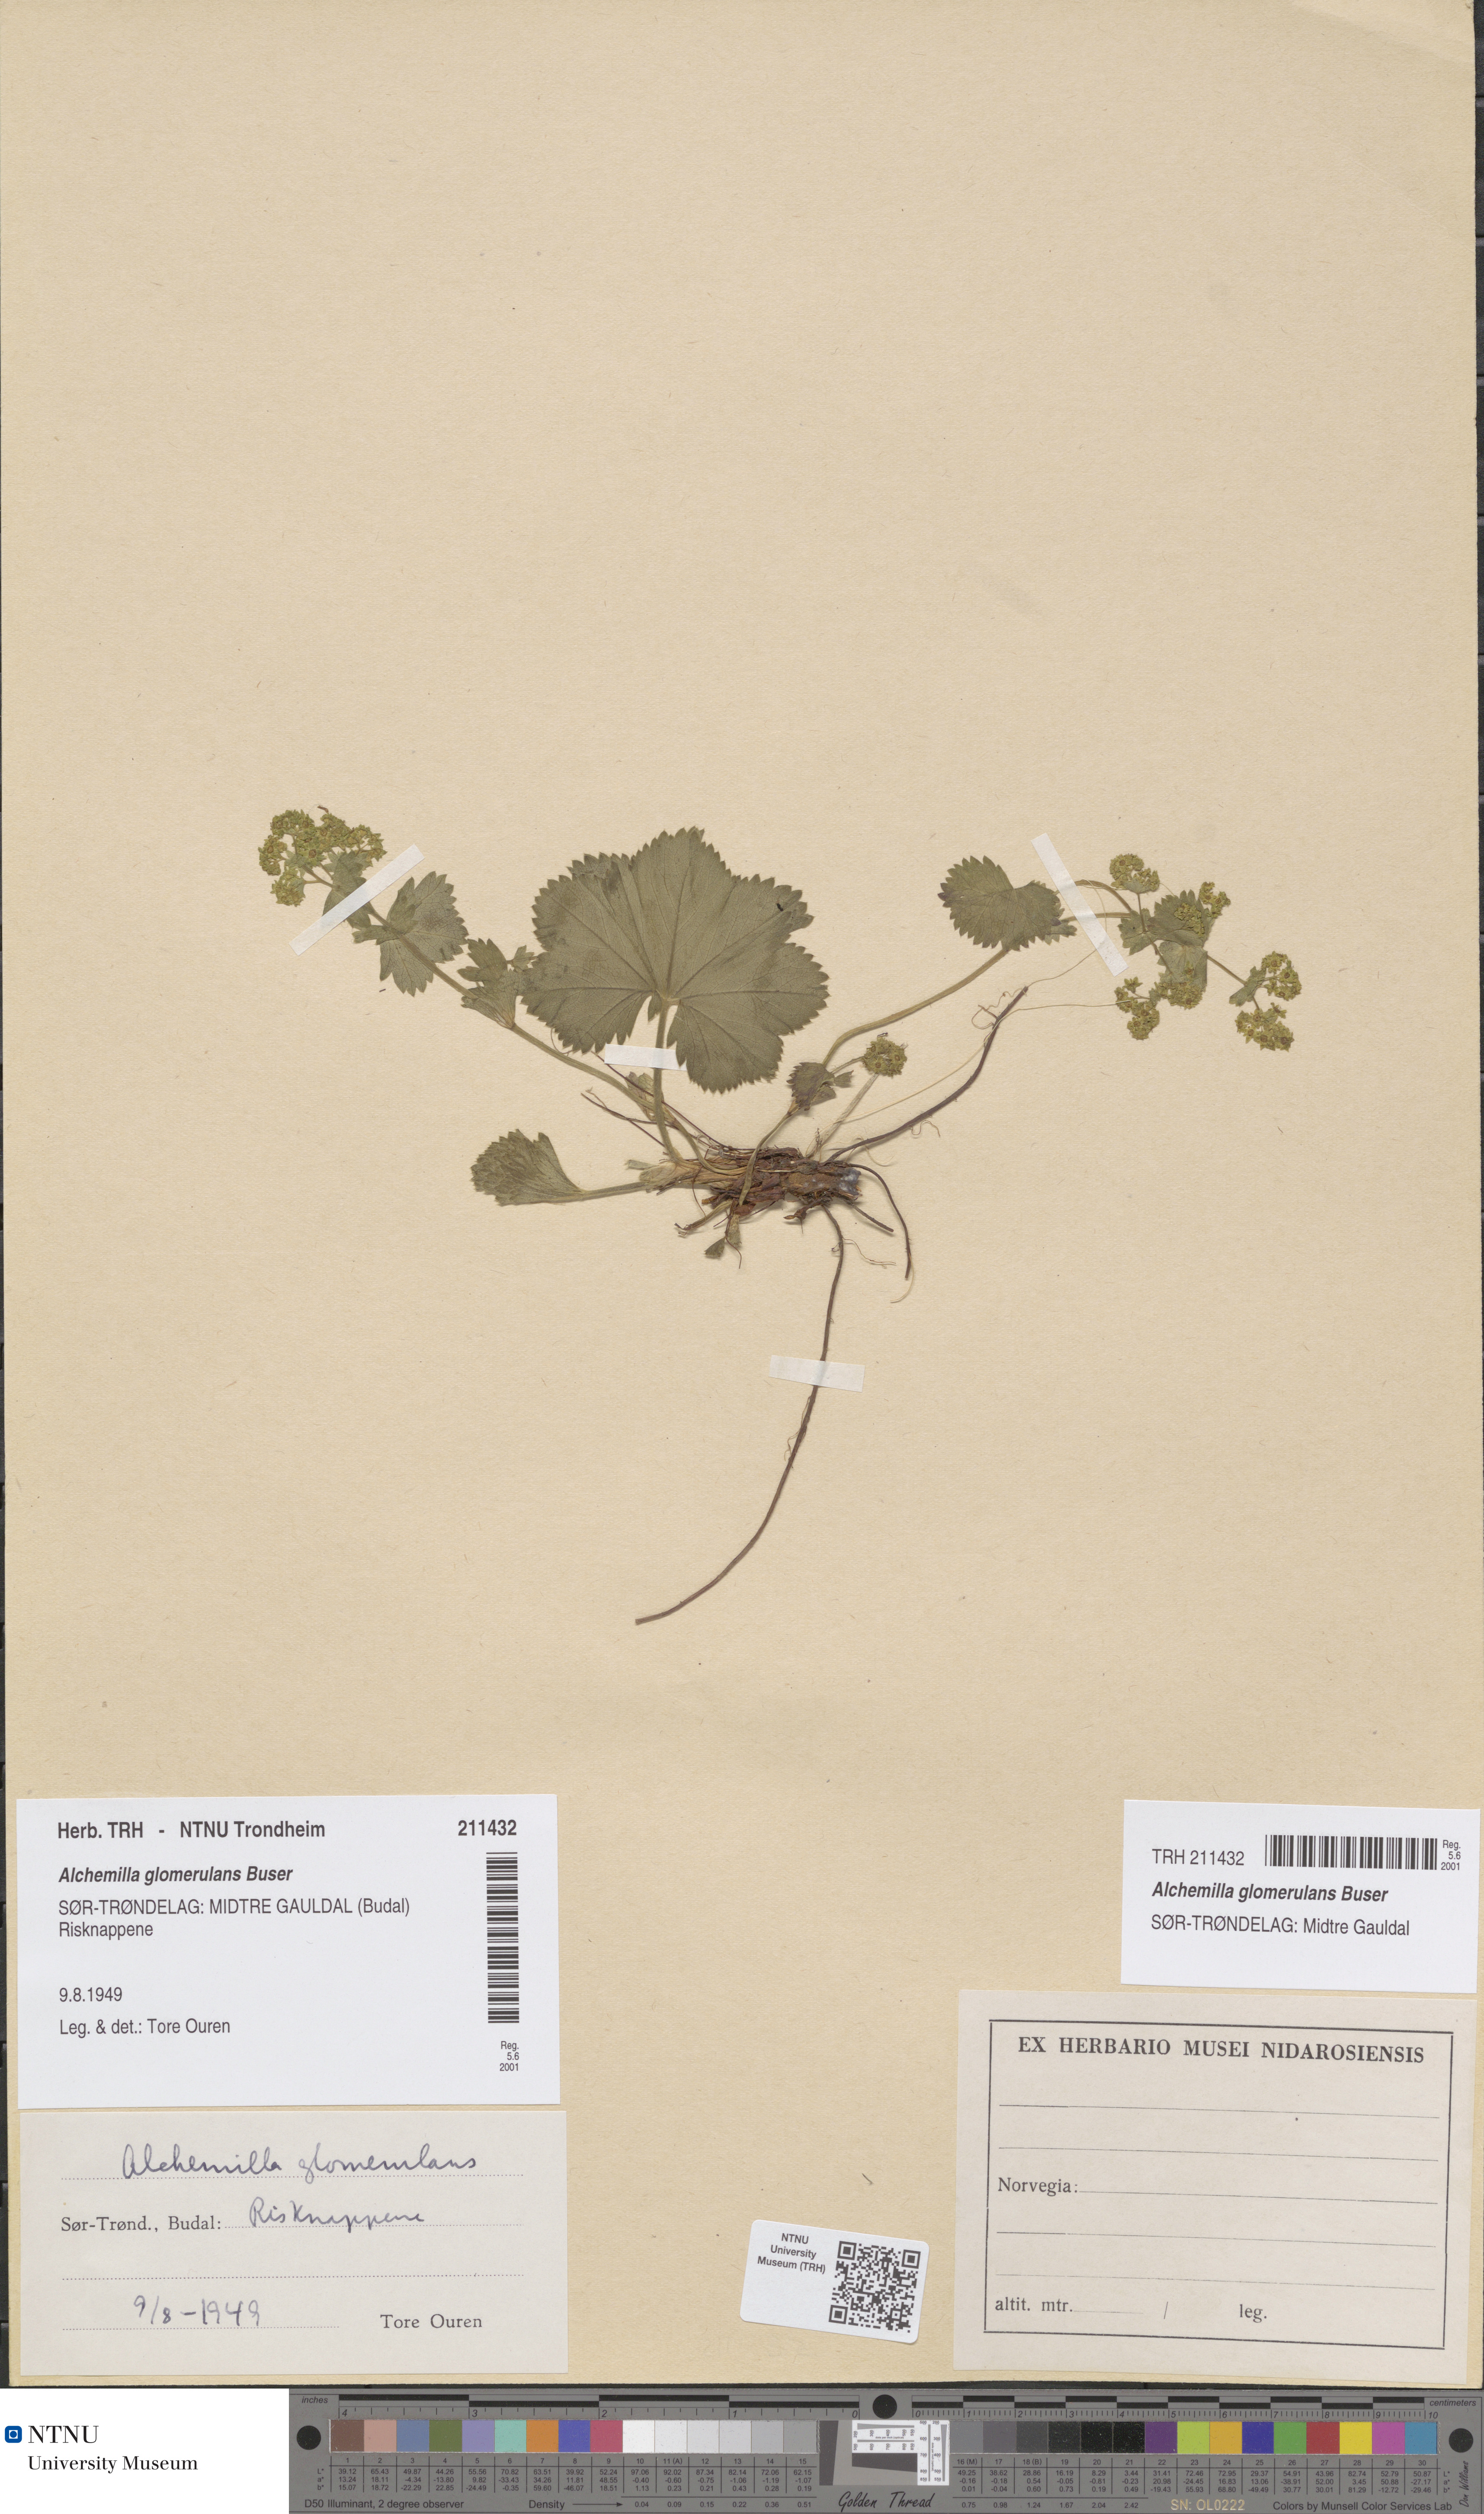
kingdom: Plantae
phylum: Tracheophyta
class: Magnoliopsida
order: Rosales
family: Rosaceae
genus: Alchemilla
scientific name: Alchemilla glomerulans
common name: Clustered lady's mantle
